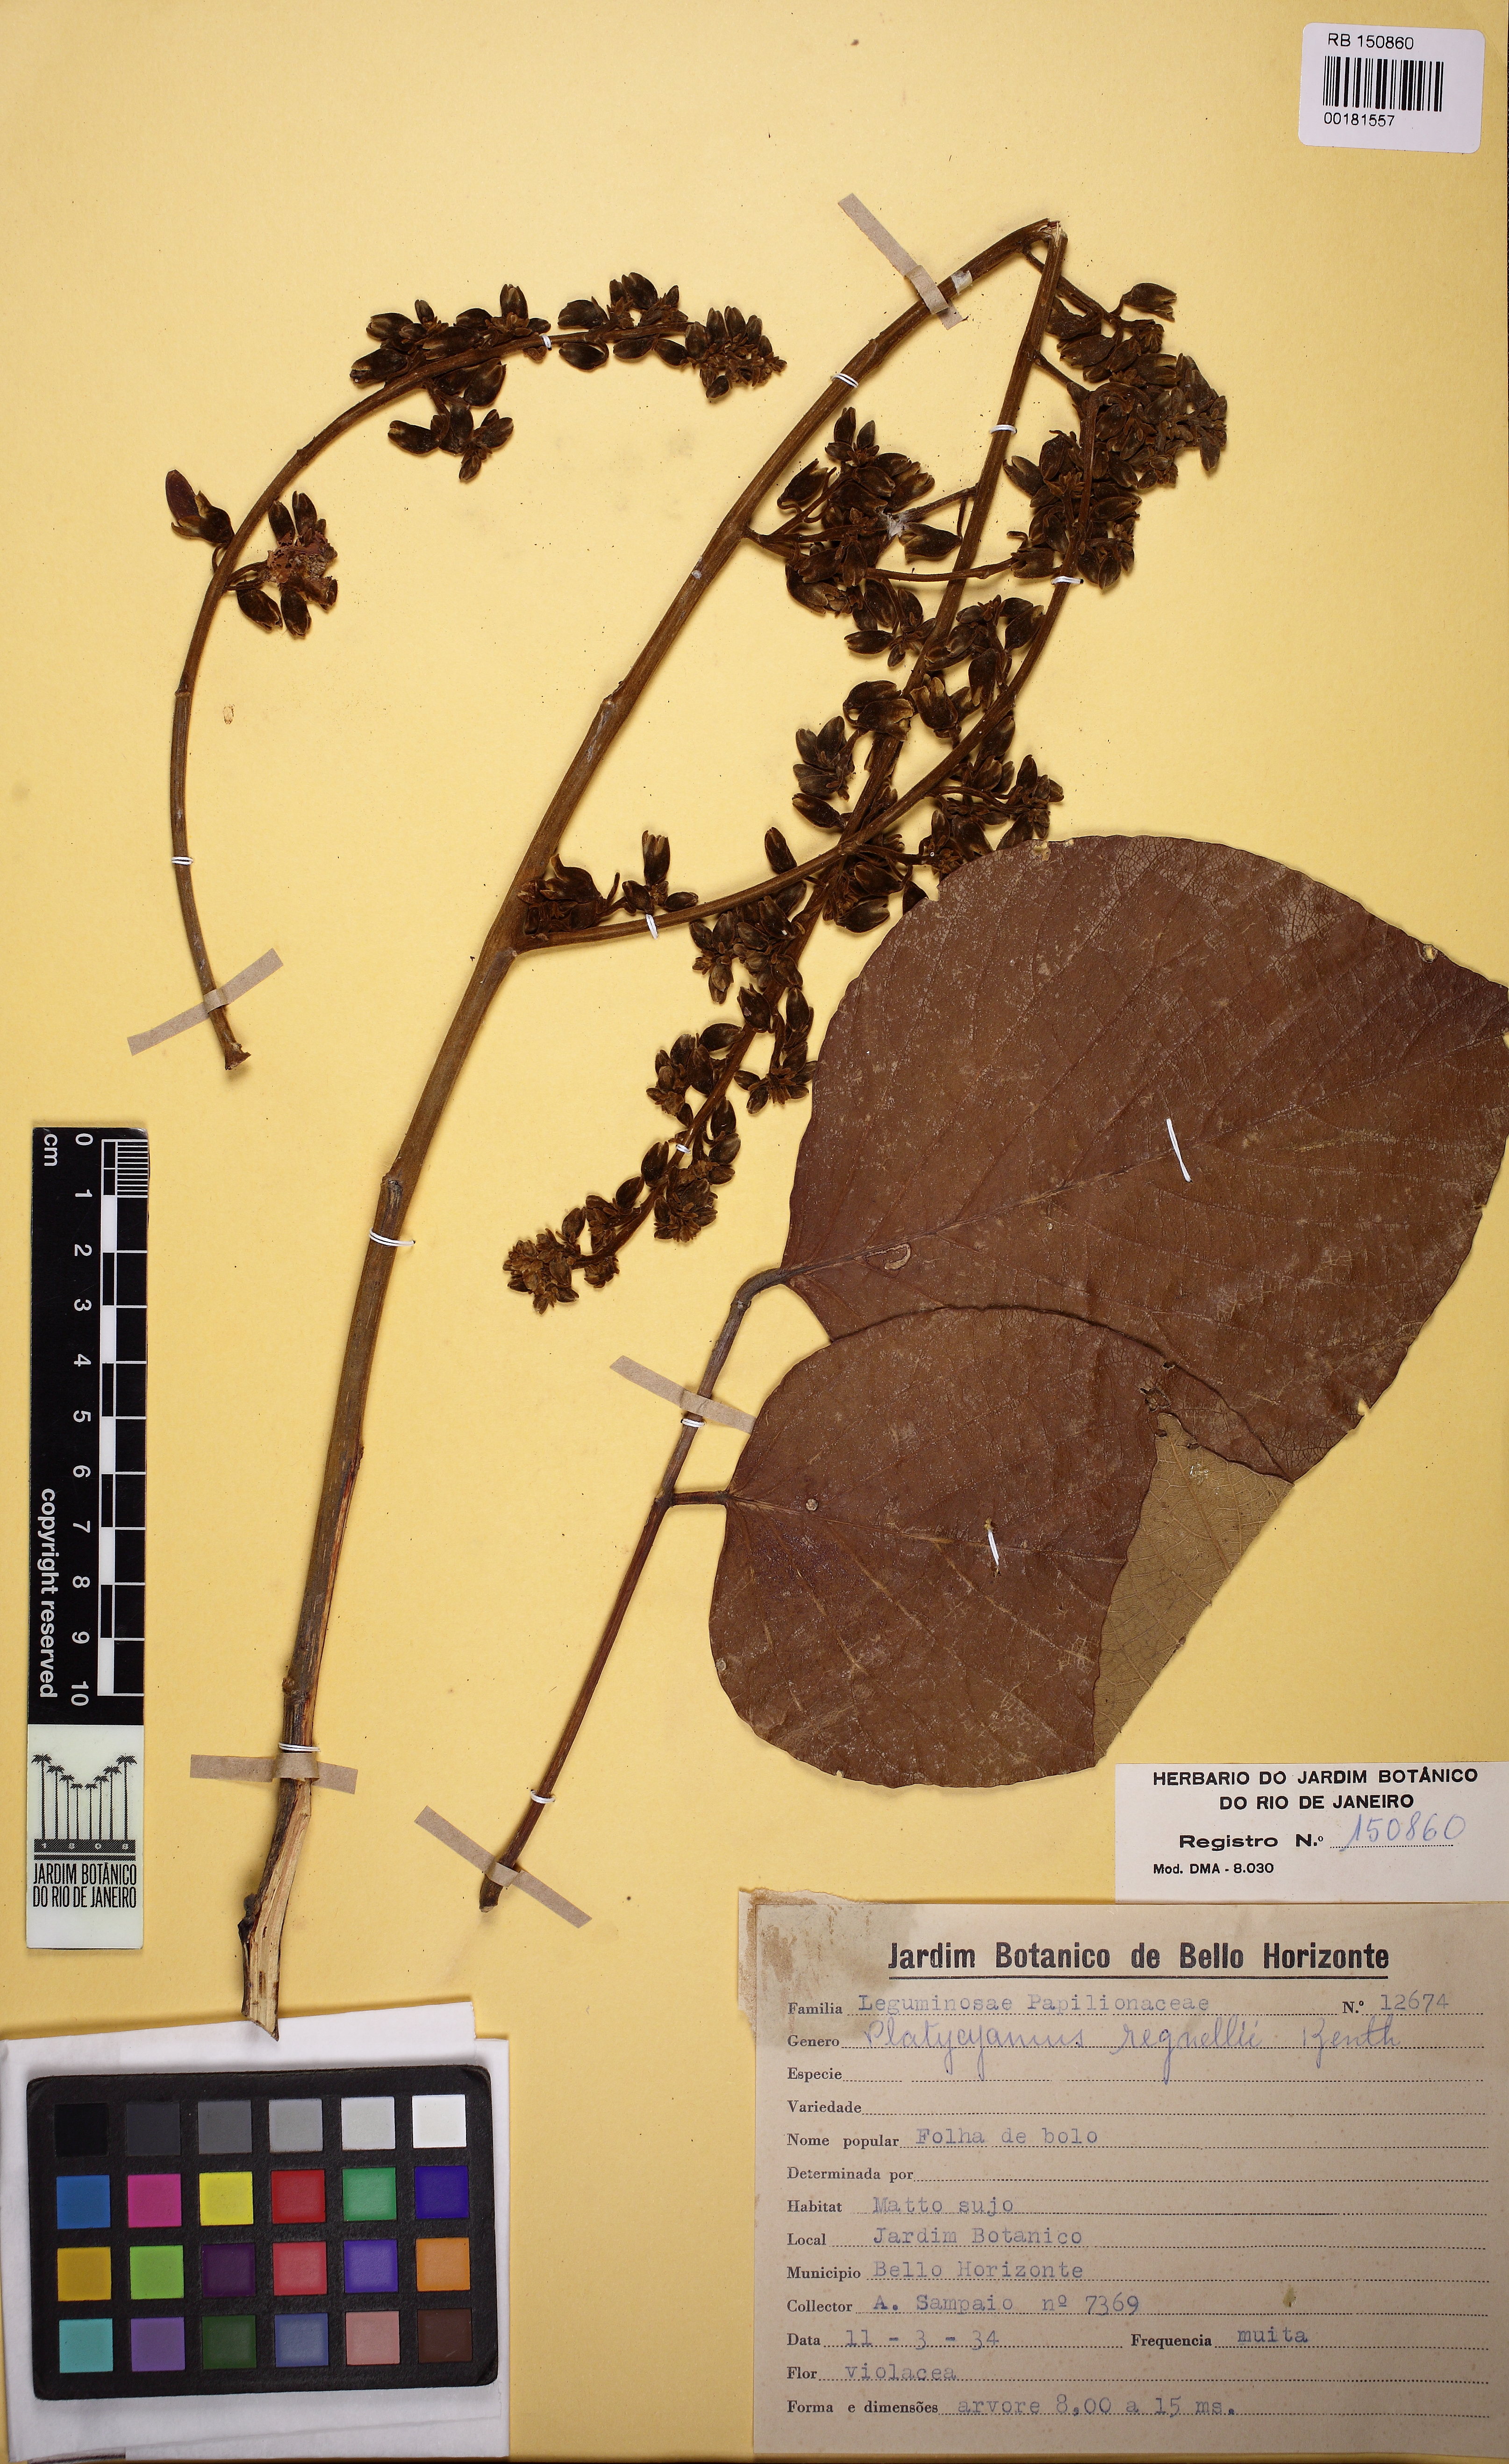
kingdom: Plantae
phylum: Tracheophyta
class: Magnoliopsida
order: Fabales
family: Fabaceae
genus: Platycyamus
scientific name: Platycyamus regnellii
